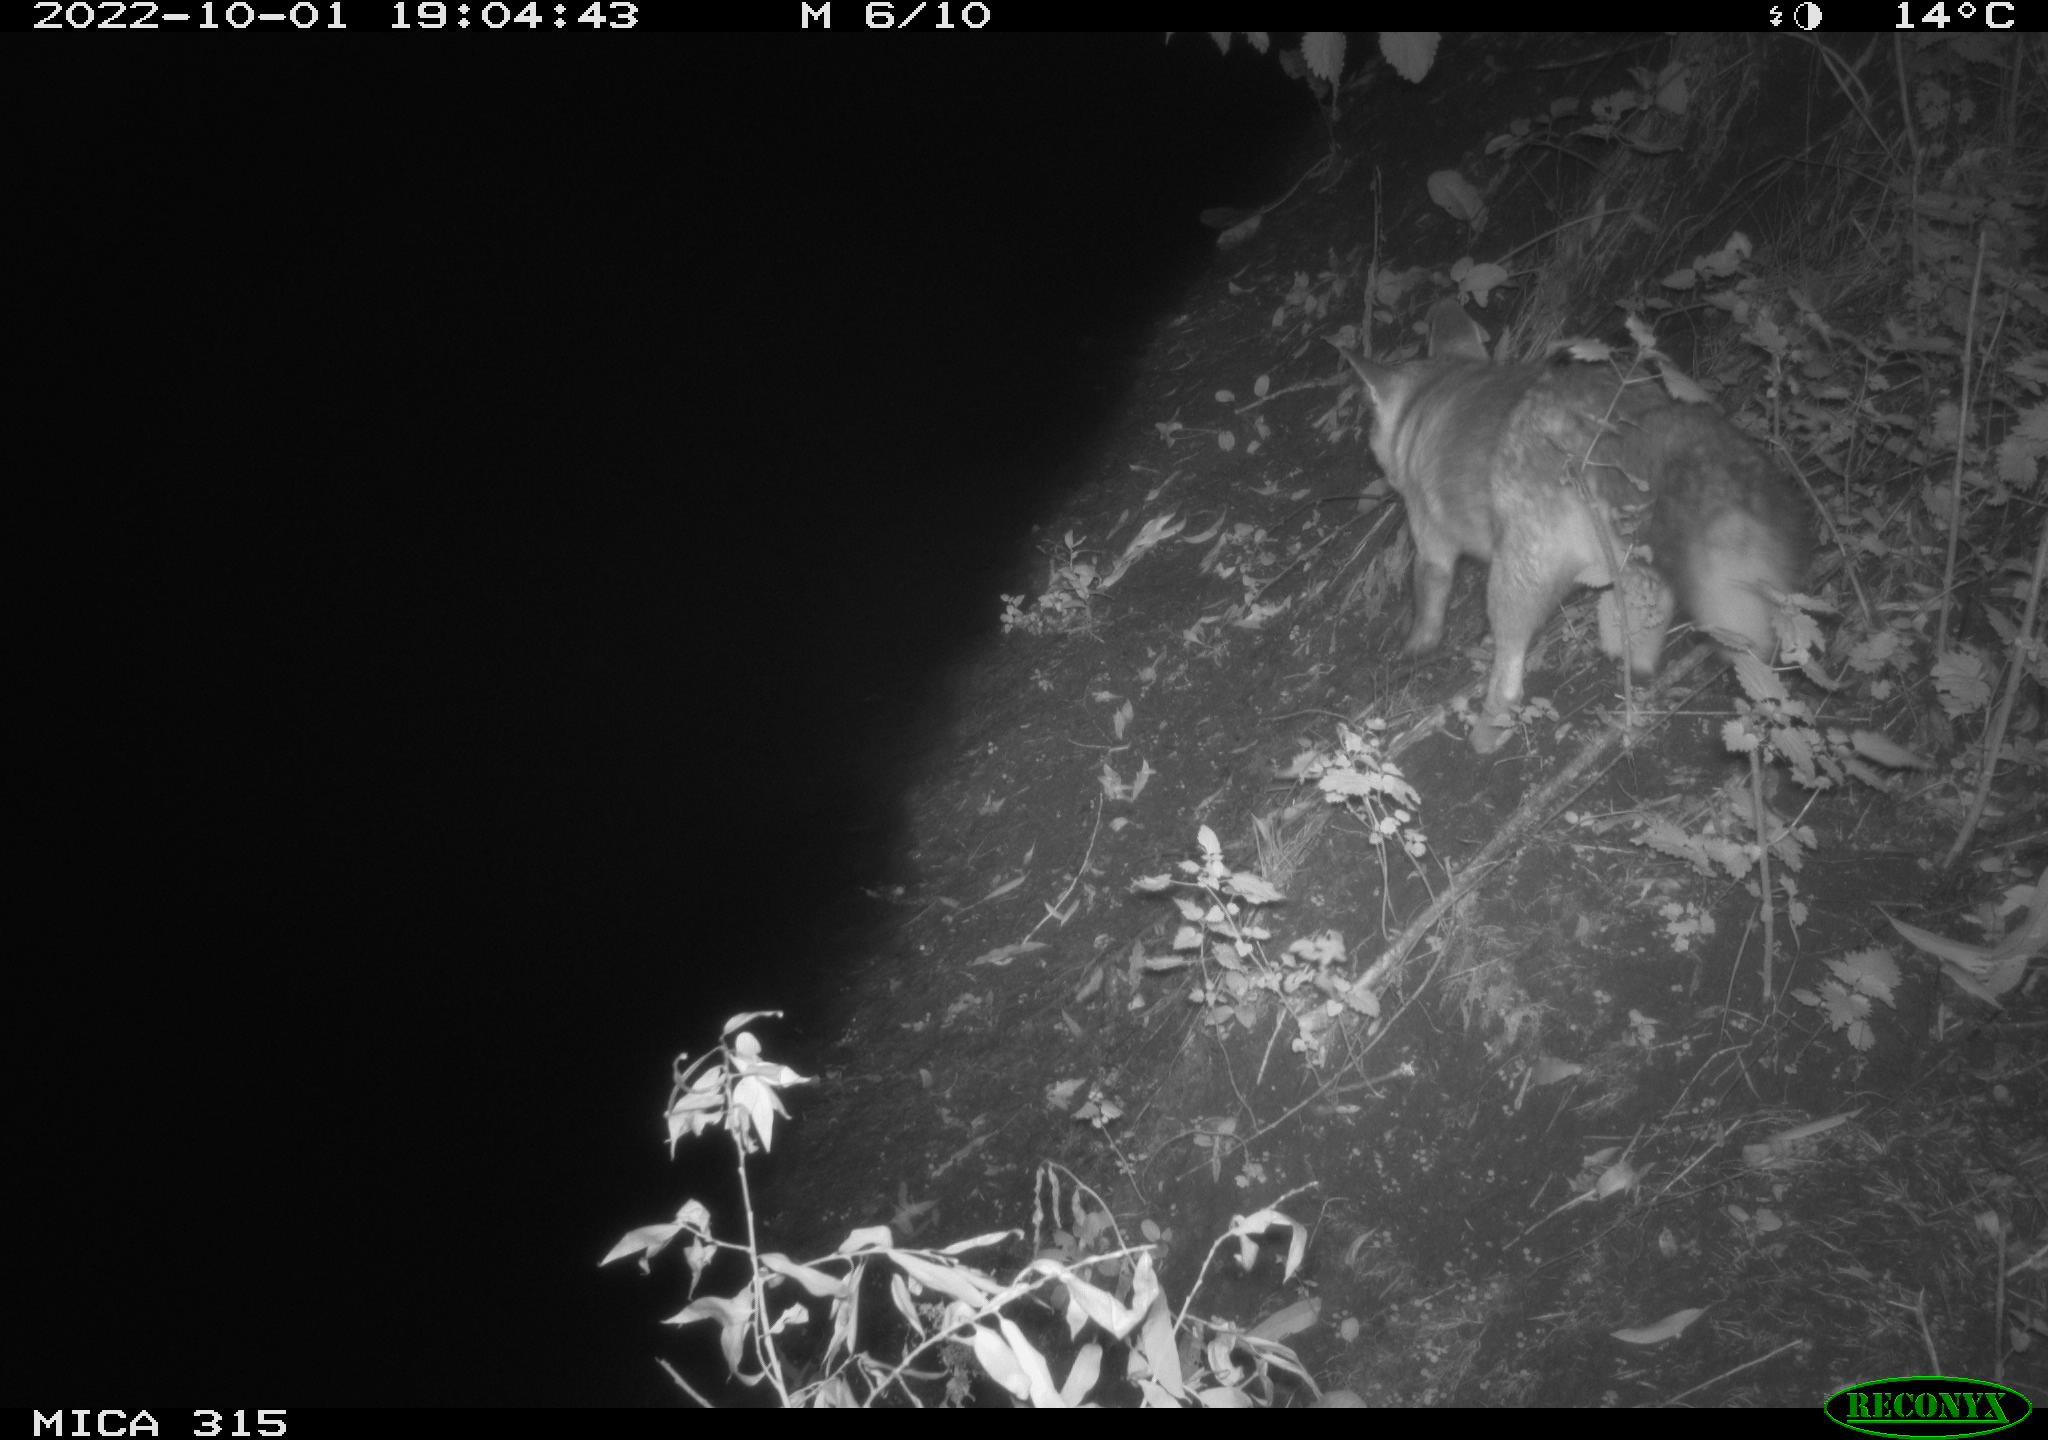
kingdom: Animalia
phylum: Chordata
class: Mammalia
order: Carnivora
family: Canidae
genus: Vulpes
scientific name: Vulpes vulpes
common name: Red fox
